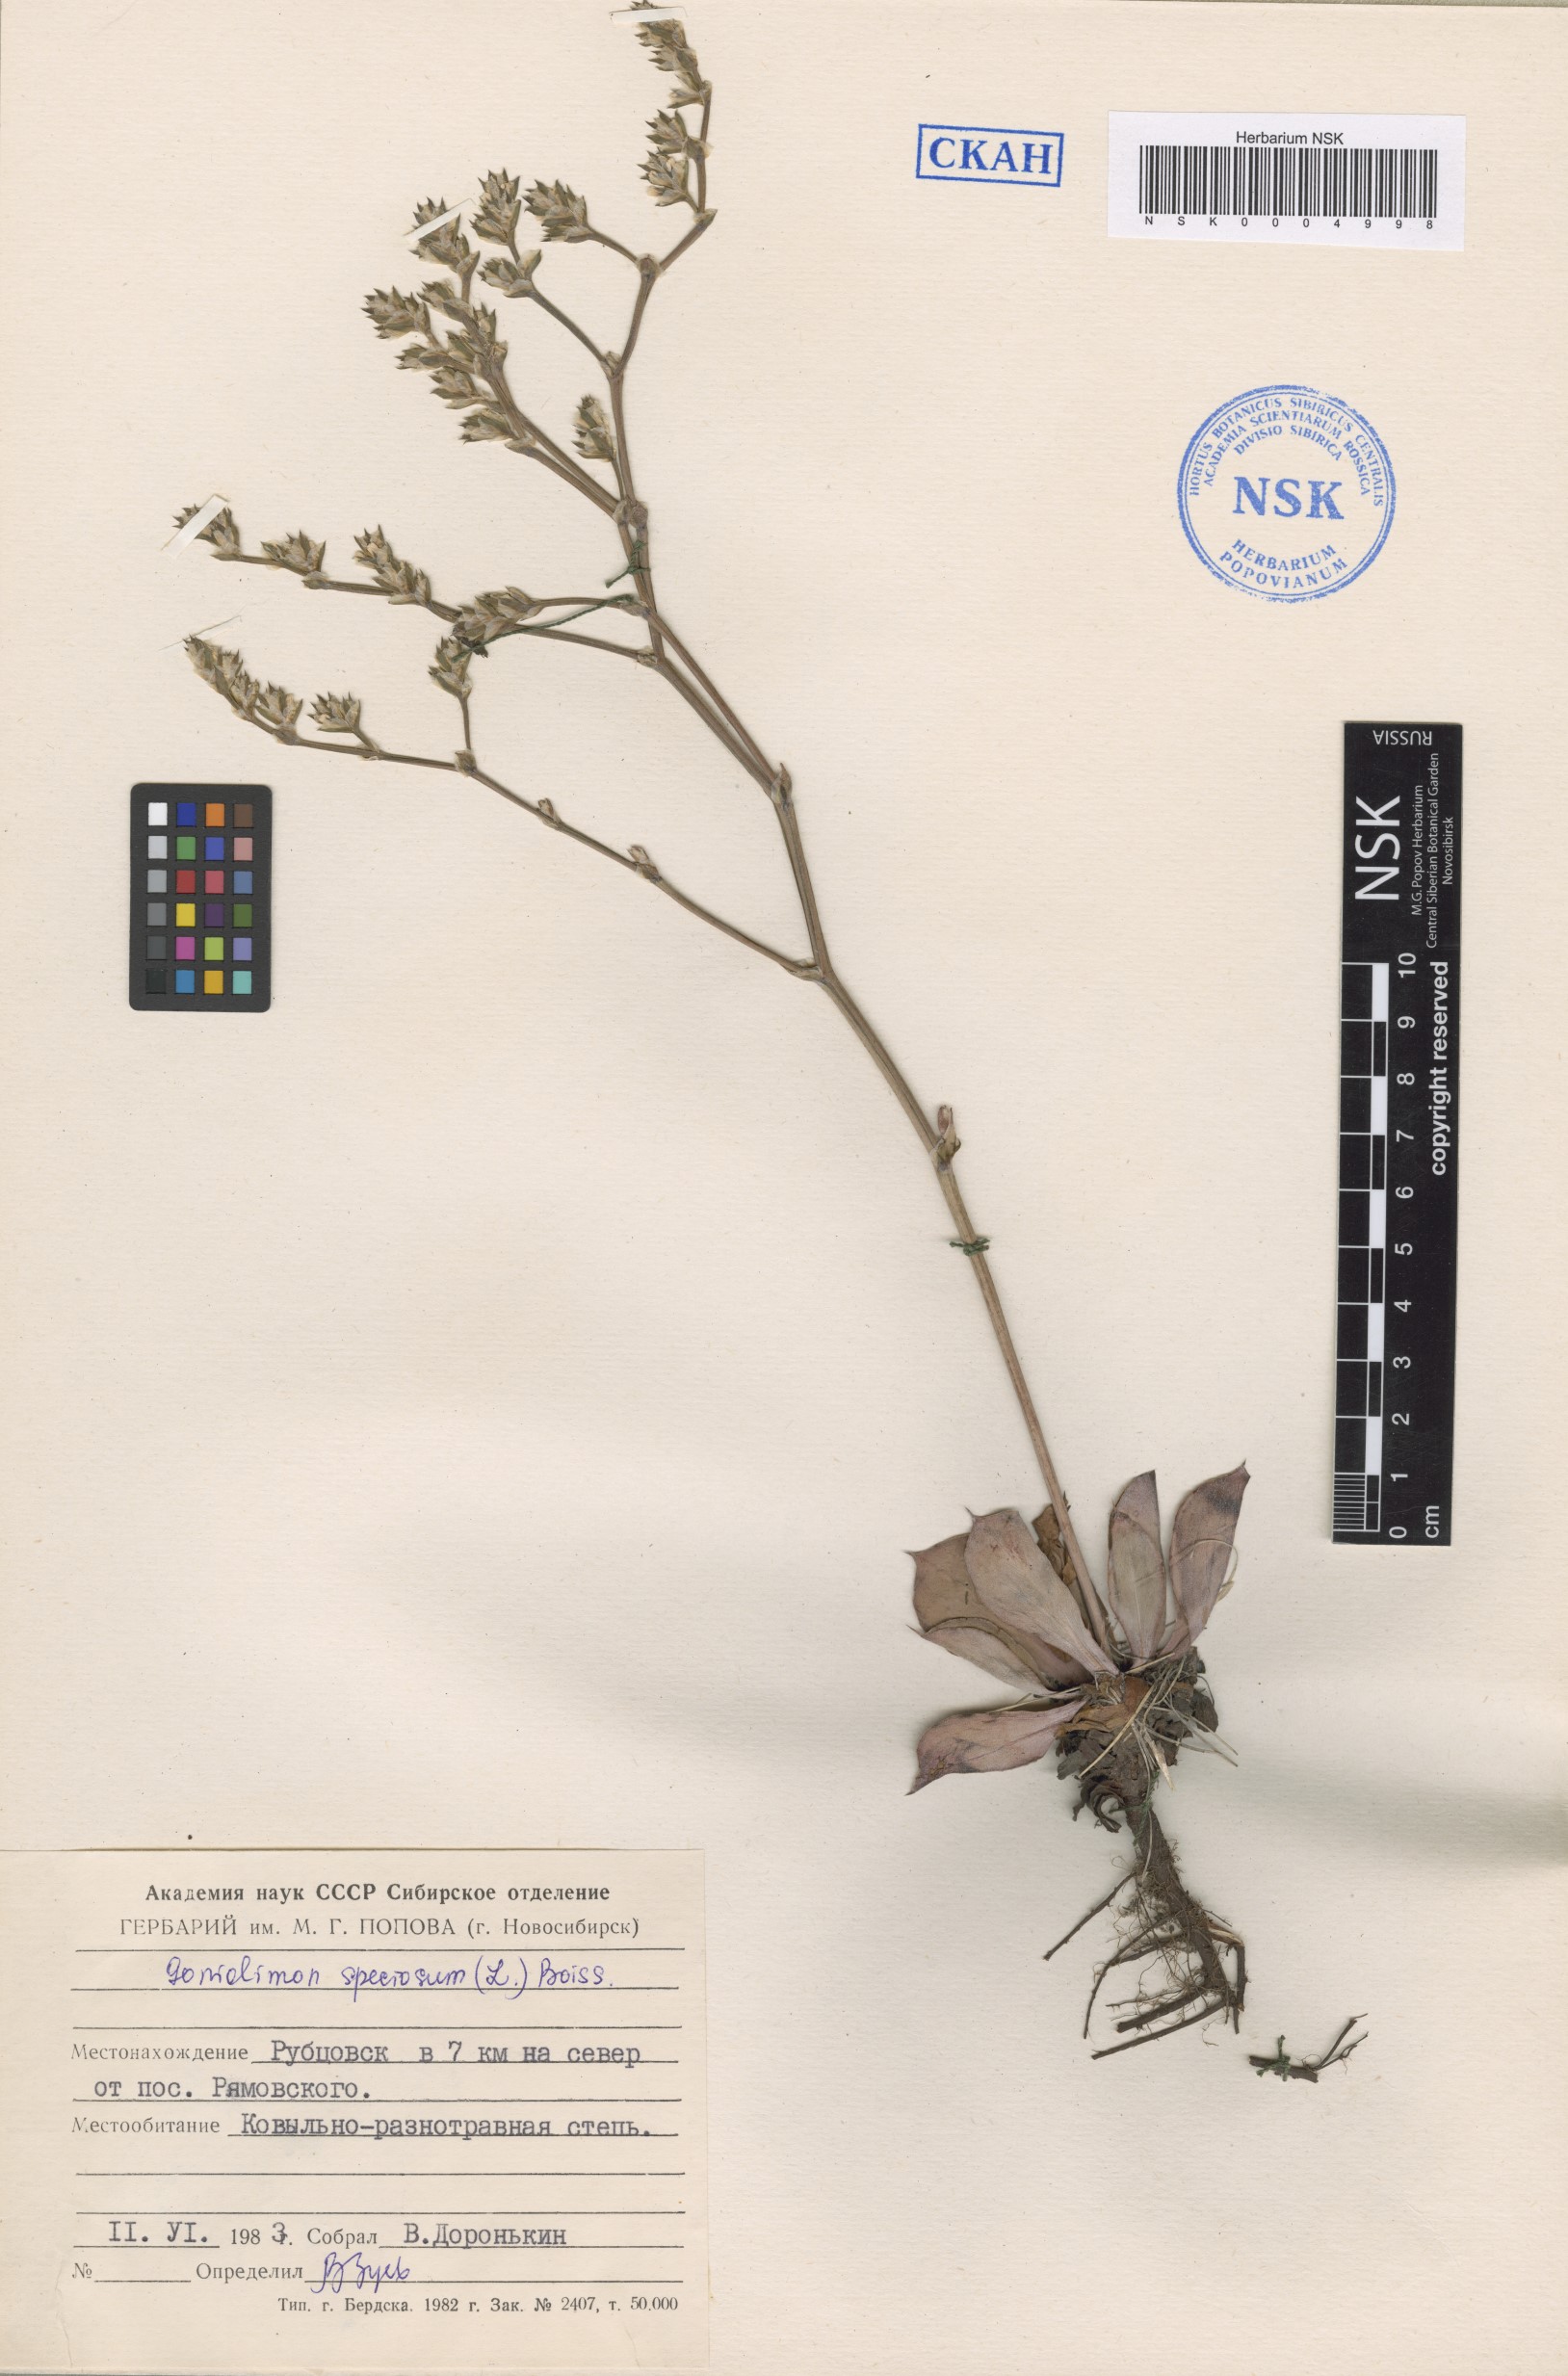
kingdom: Plantae
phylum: Tracheophyta
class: Magnoliopsida
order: Caryophyllales
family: Plumbaginaceae
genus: Goniolimon
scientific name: Goniolimon speciosum
